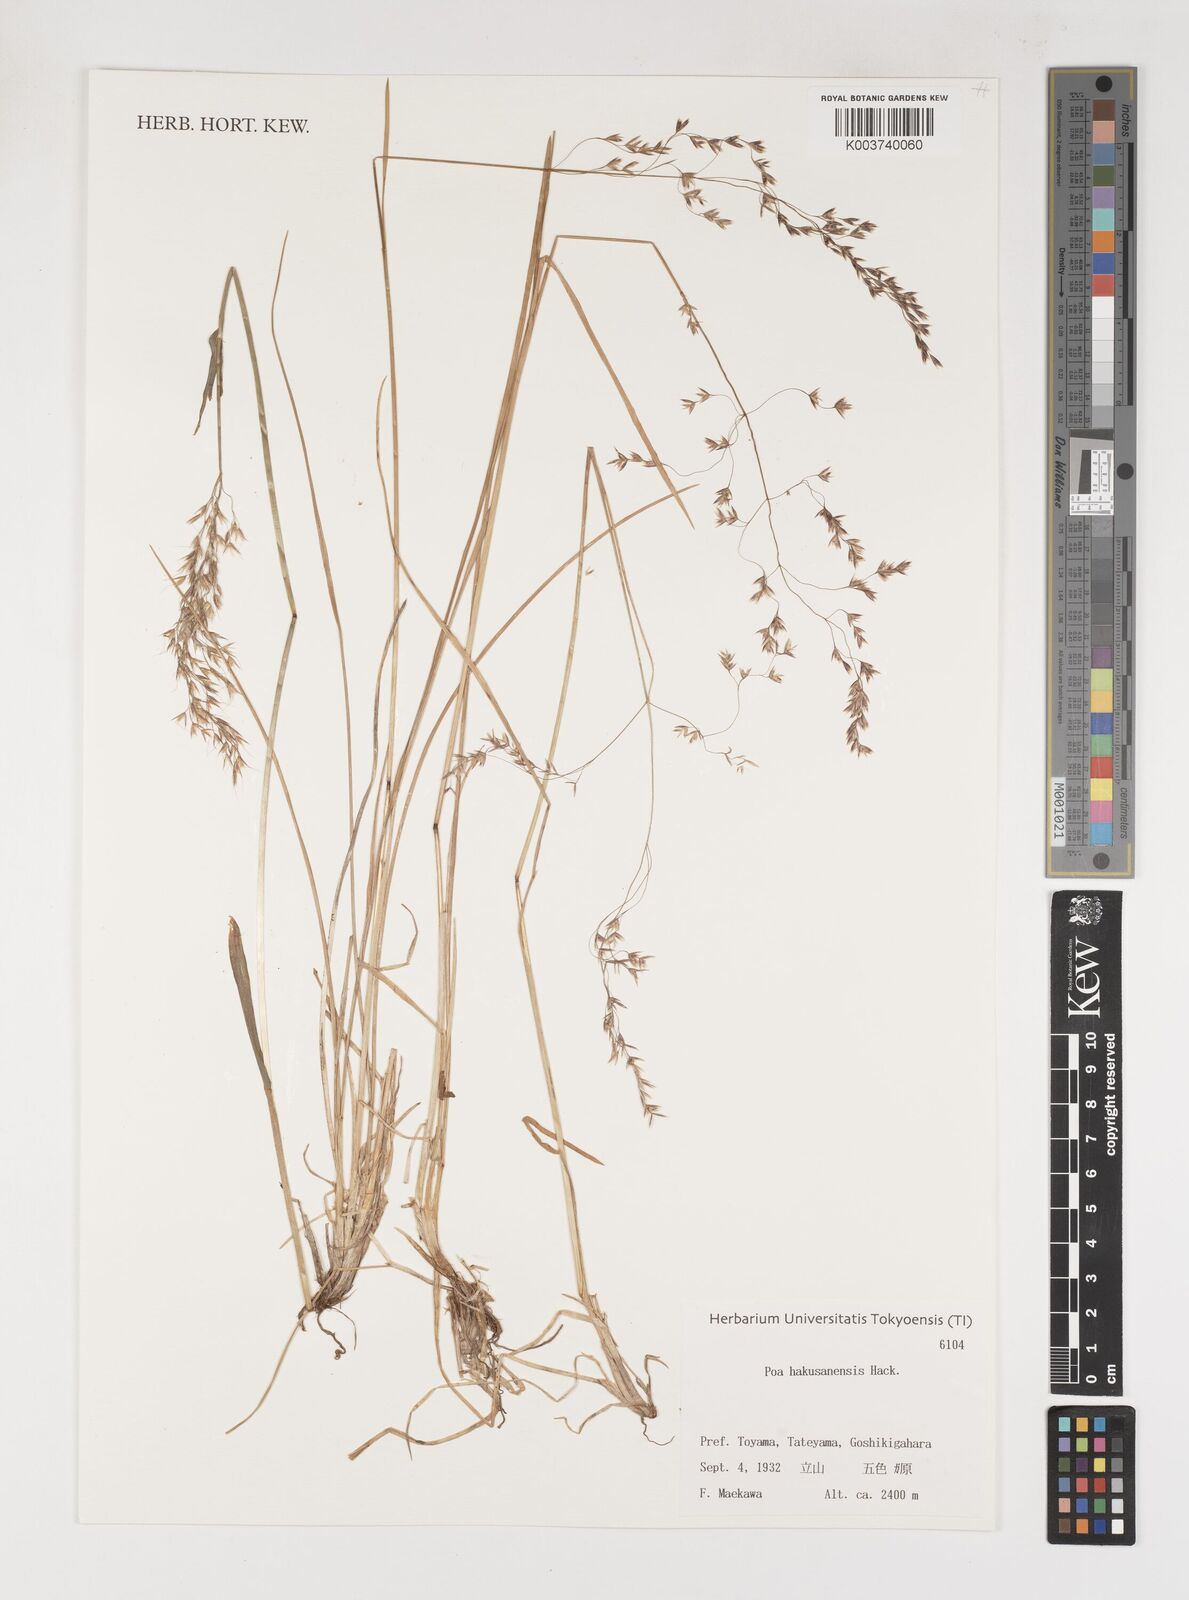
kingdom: Plantae
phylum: Tracheophyta
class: Liliopsida
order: Poales
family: Poaceae
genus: Poa
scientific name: Poa hakusanensis
